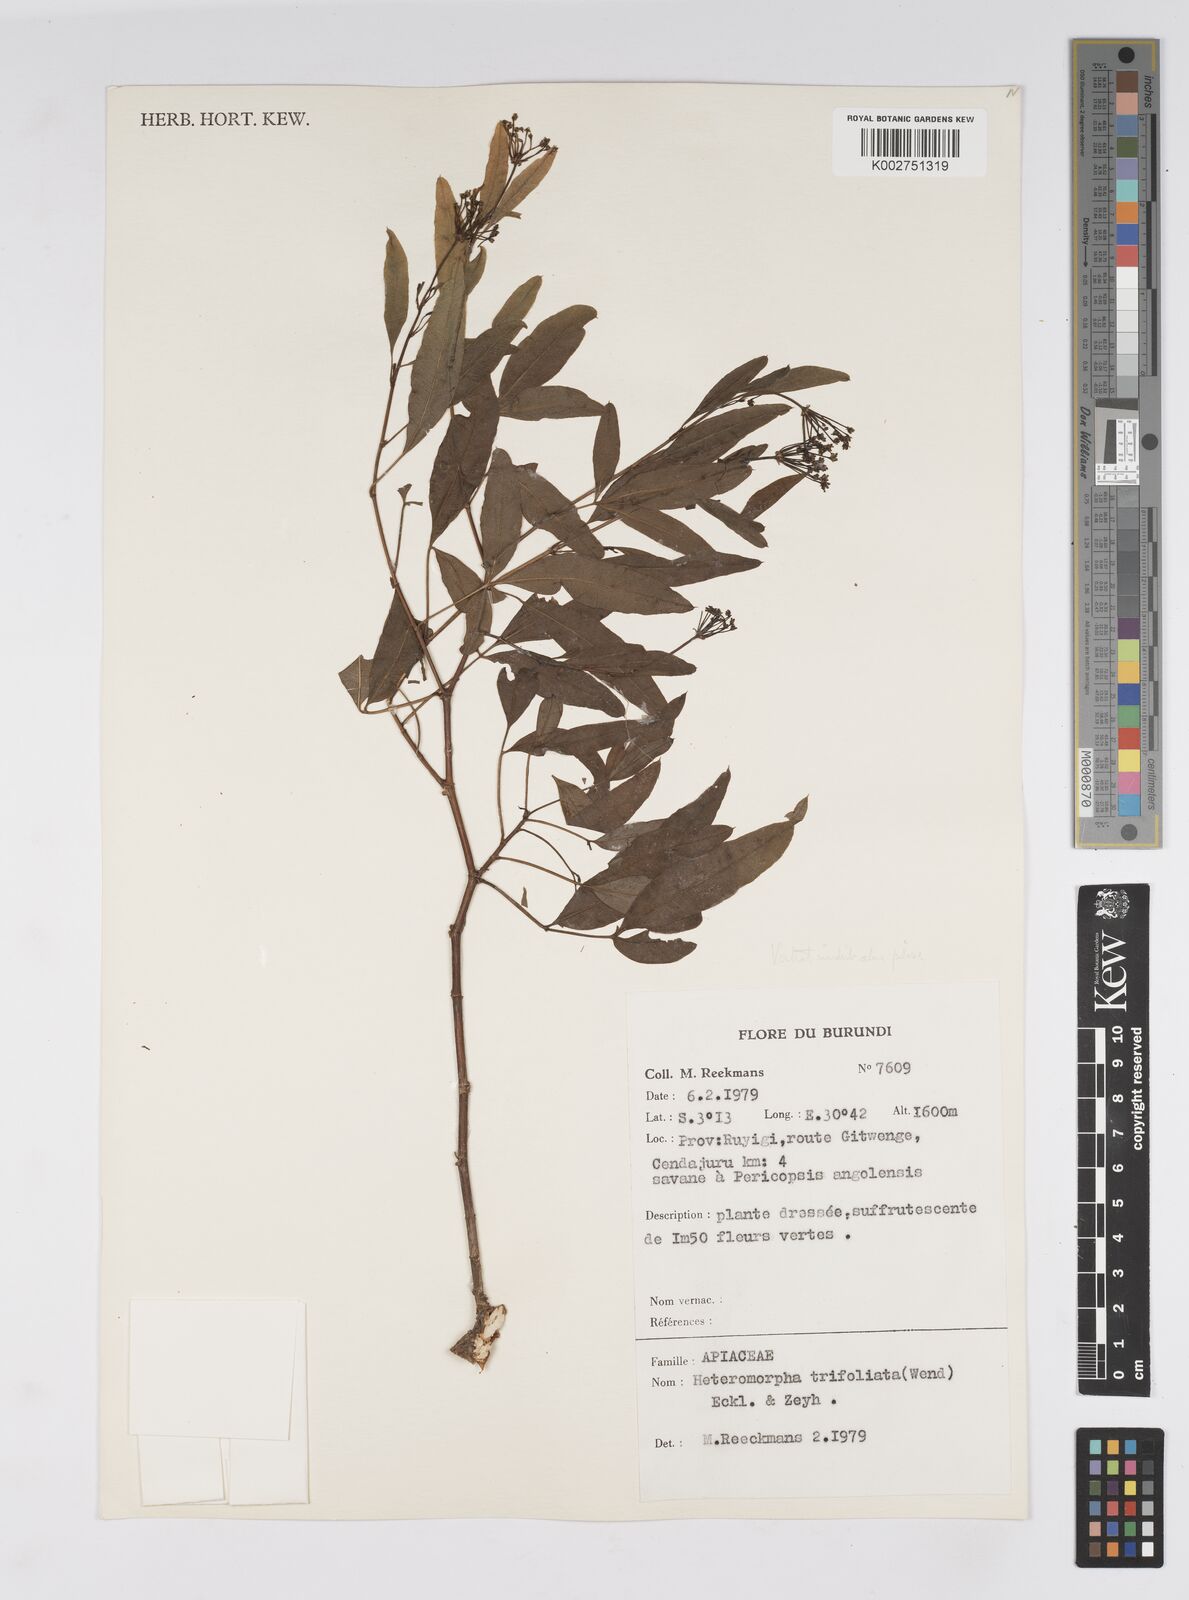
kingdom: Plantae
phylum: Tracheophyta
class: Magnoliopsida
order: Apiales
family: Apiaceae
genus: Heteromorpha
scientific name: Heteromorpha arborescens
